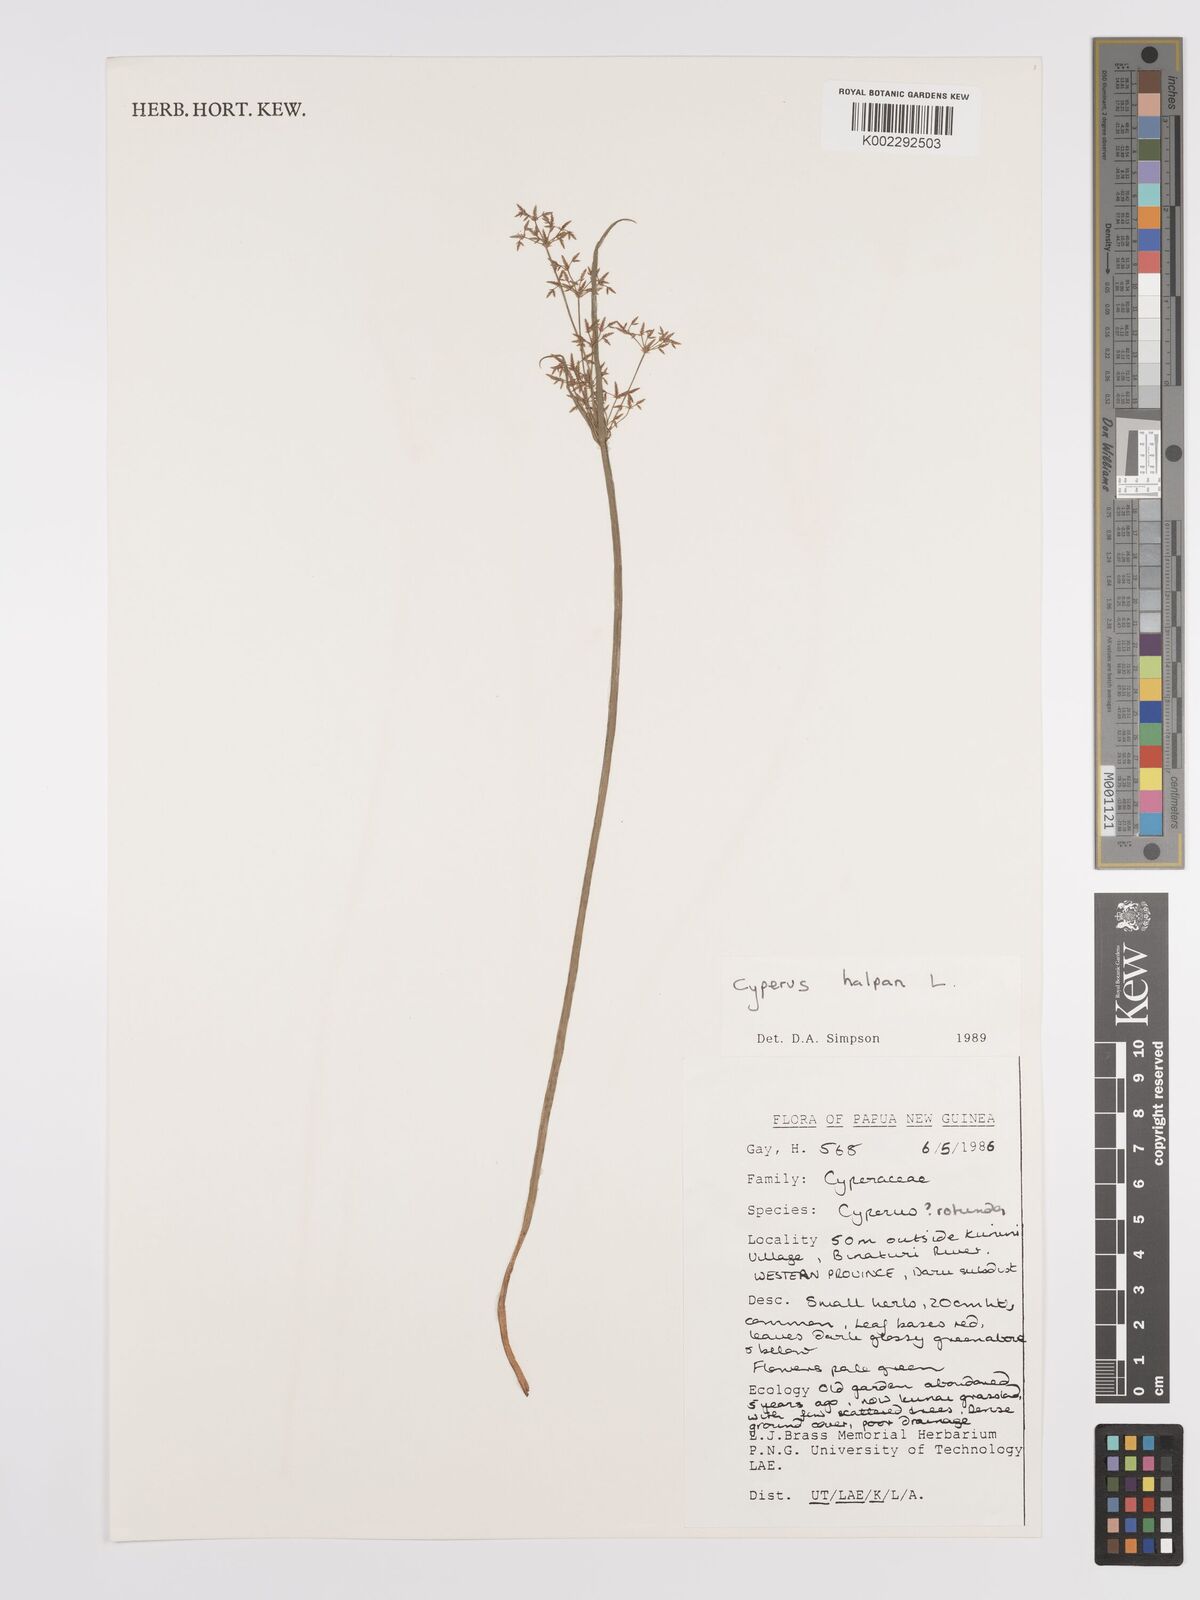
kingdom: Plantae
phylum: Tracheophyta
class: Liliopsida
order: Poales
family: Cyperaceae
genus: Cyperus
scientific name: Cyperus haspan
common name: Haspan flatsedge
